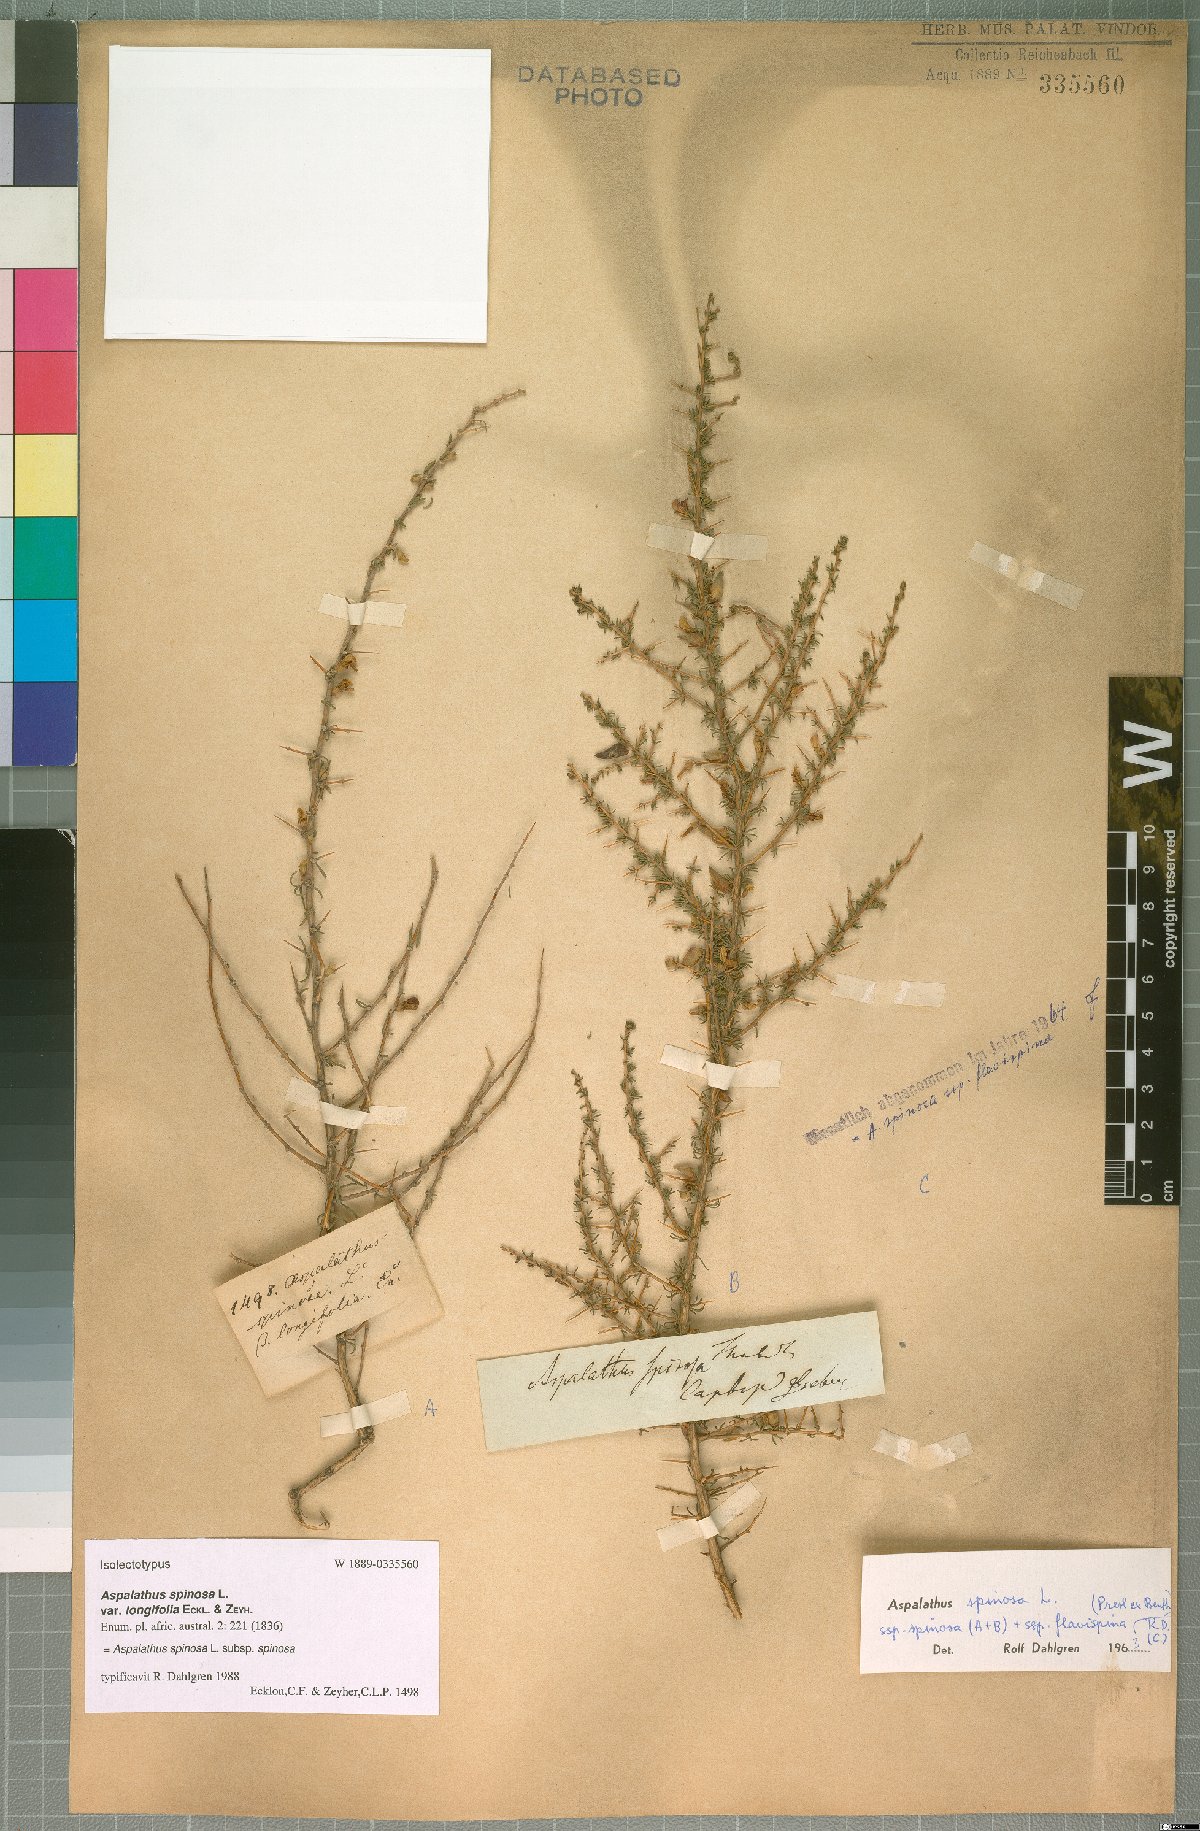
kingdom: Plantae
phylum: Tracheophyta
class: Magnoliopsida
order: Fabales
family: Fabaceae
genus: Aspalathus
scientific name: Aspalathus spinosa
